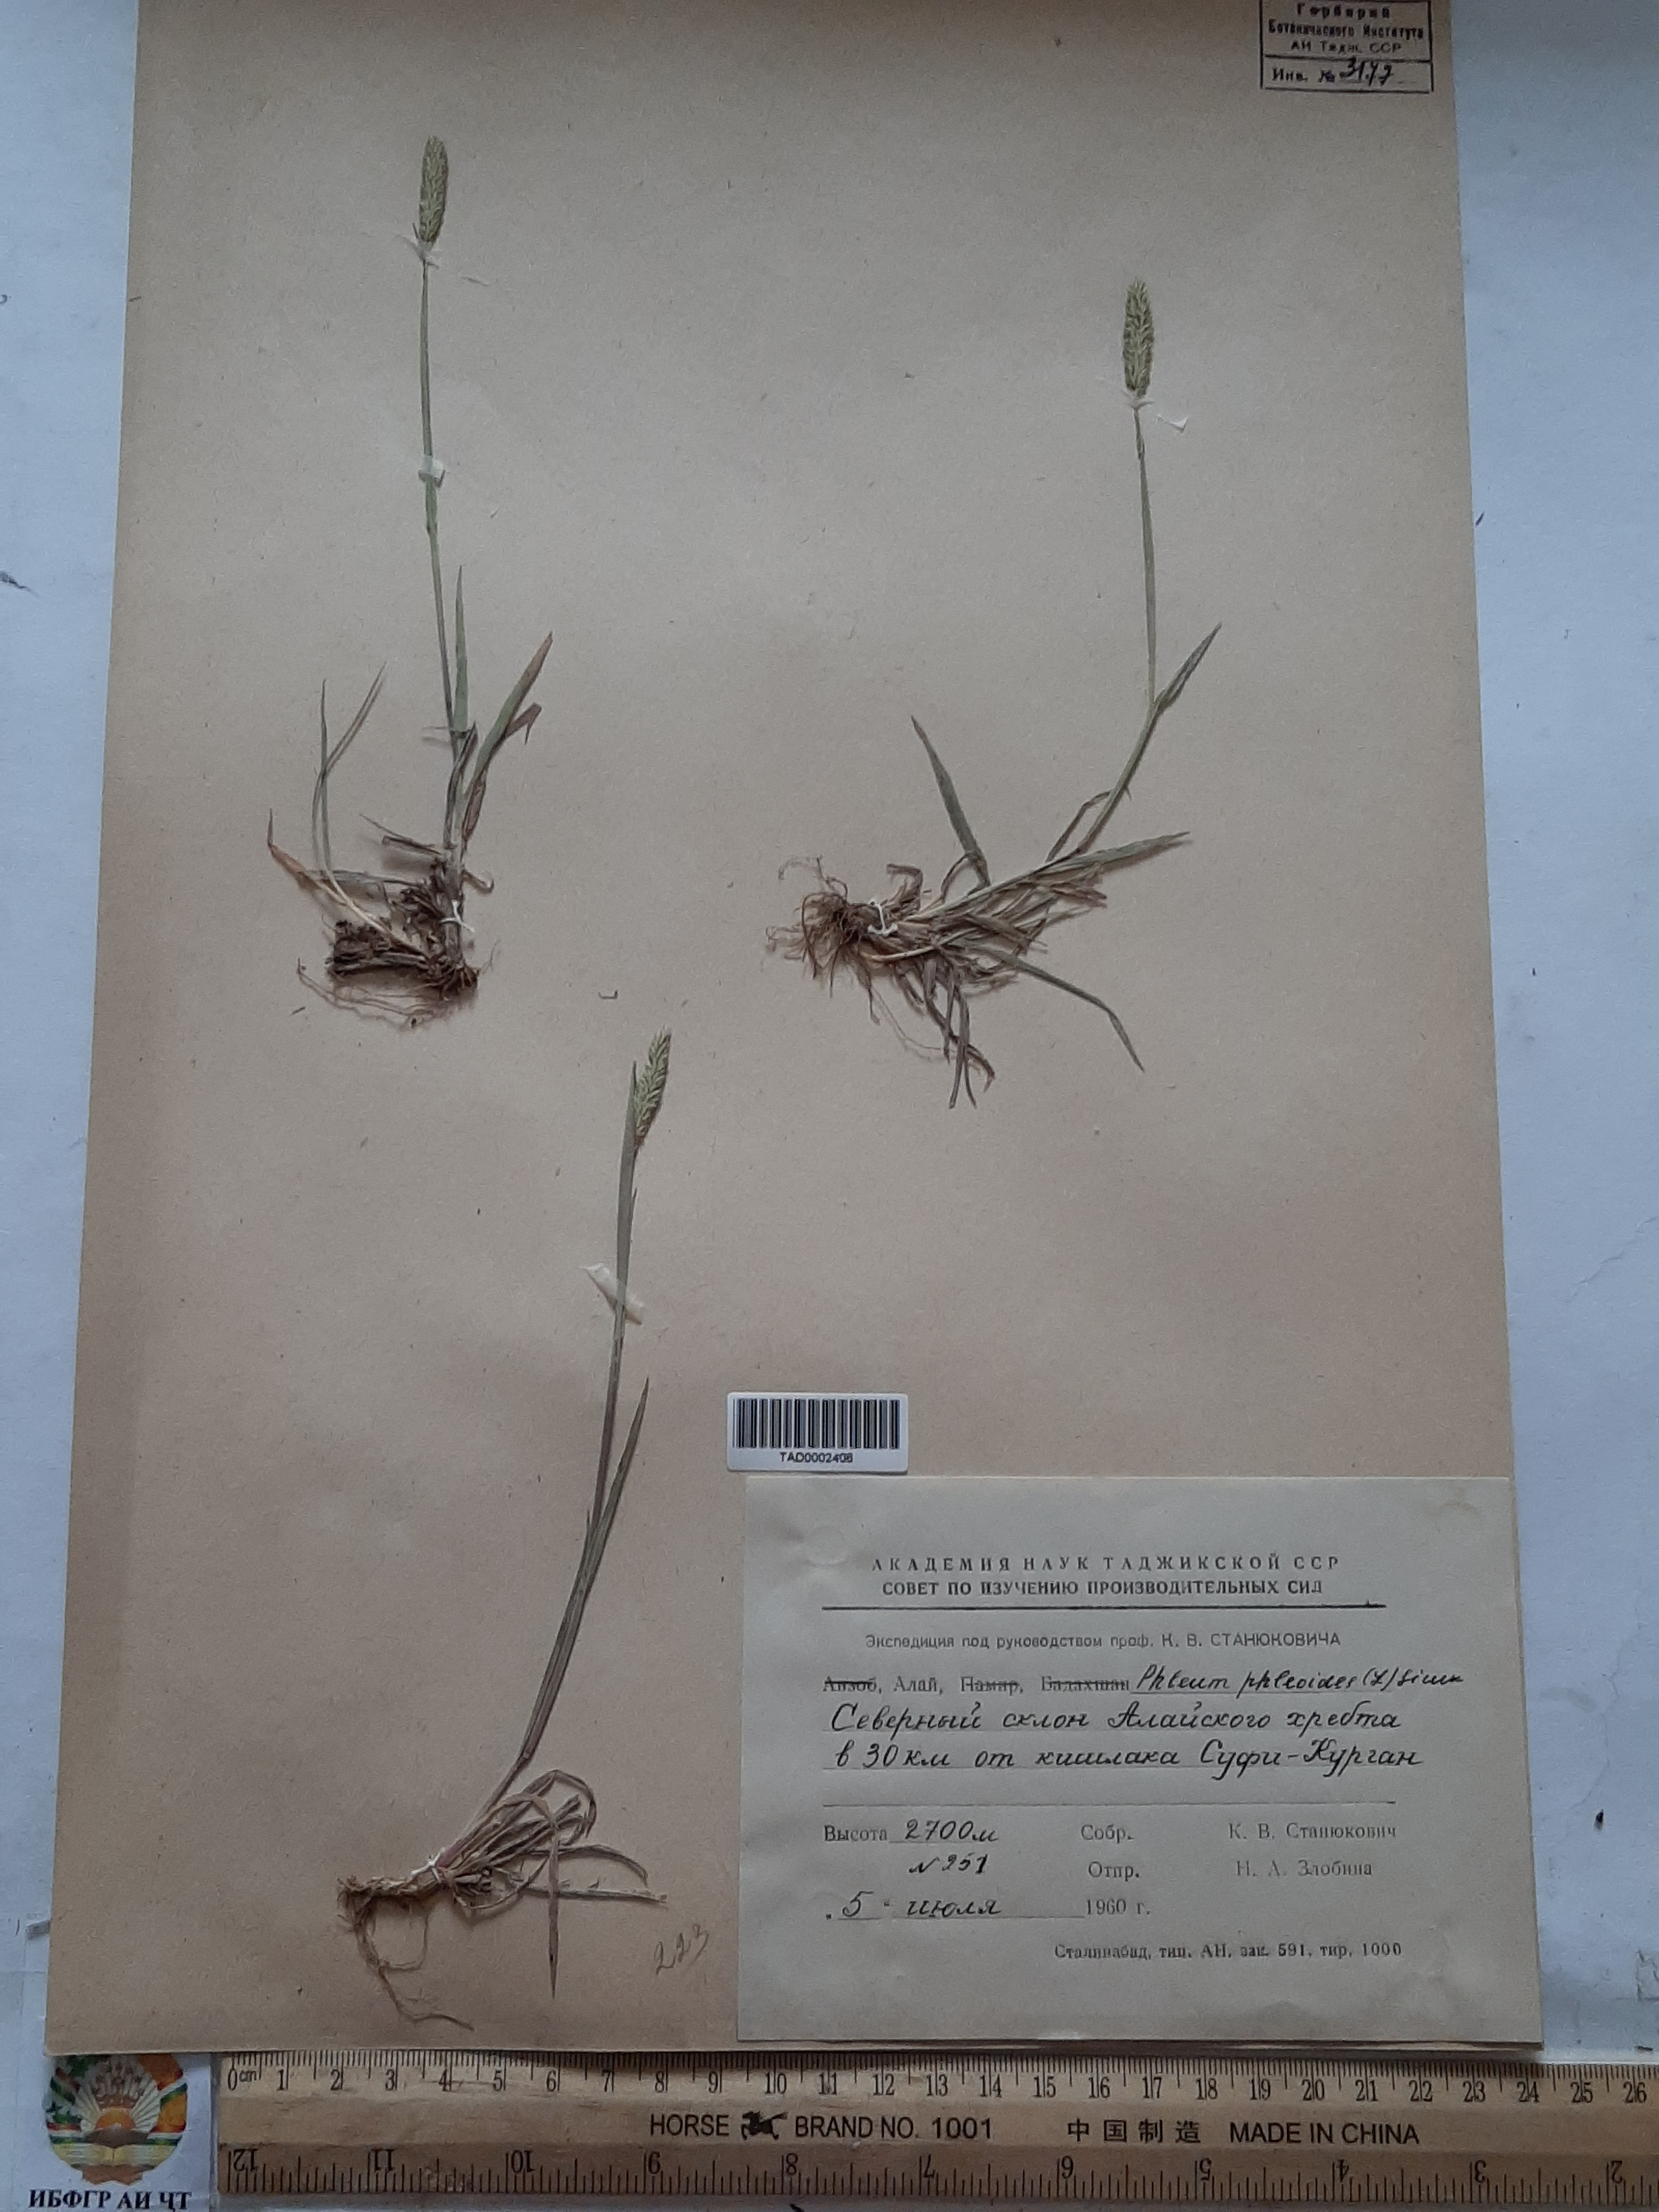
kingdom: Plantae
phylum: Tracheophyta
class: Liliopsida
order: Poales
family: Poaceae
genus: Phleum
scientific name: Phleum phleoides
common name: Purple-stem cat's-tail
